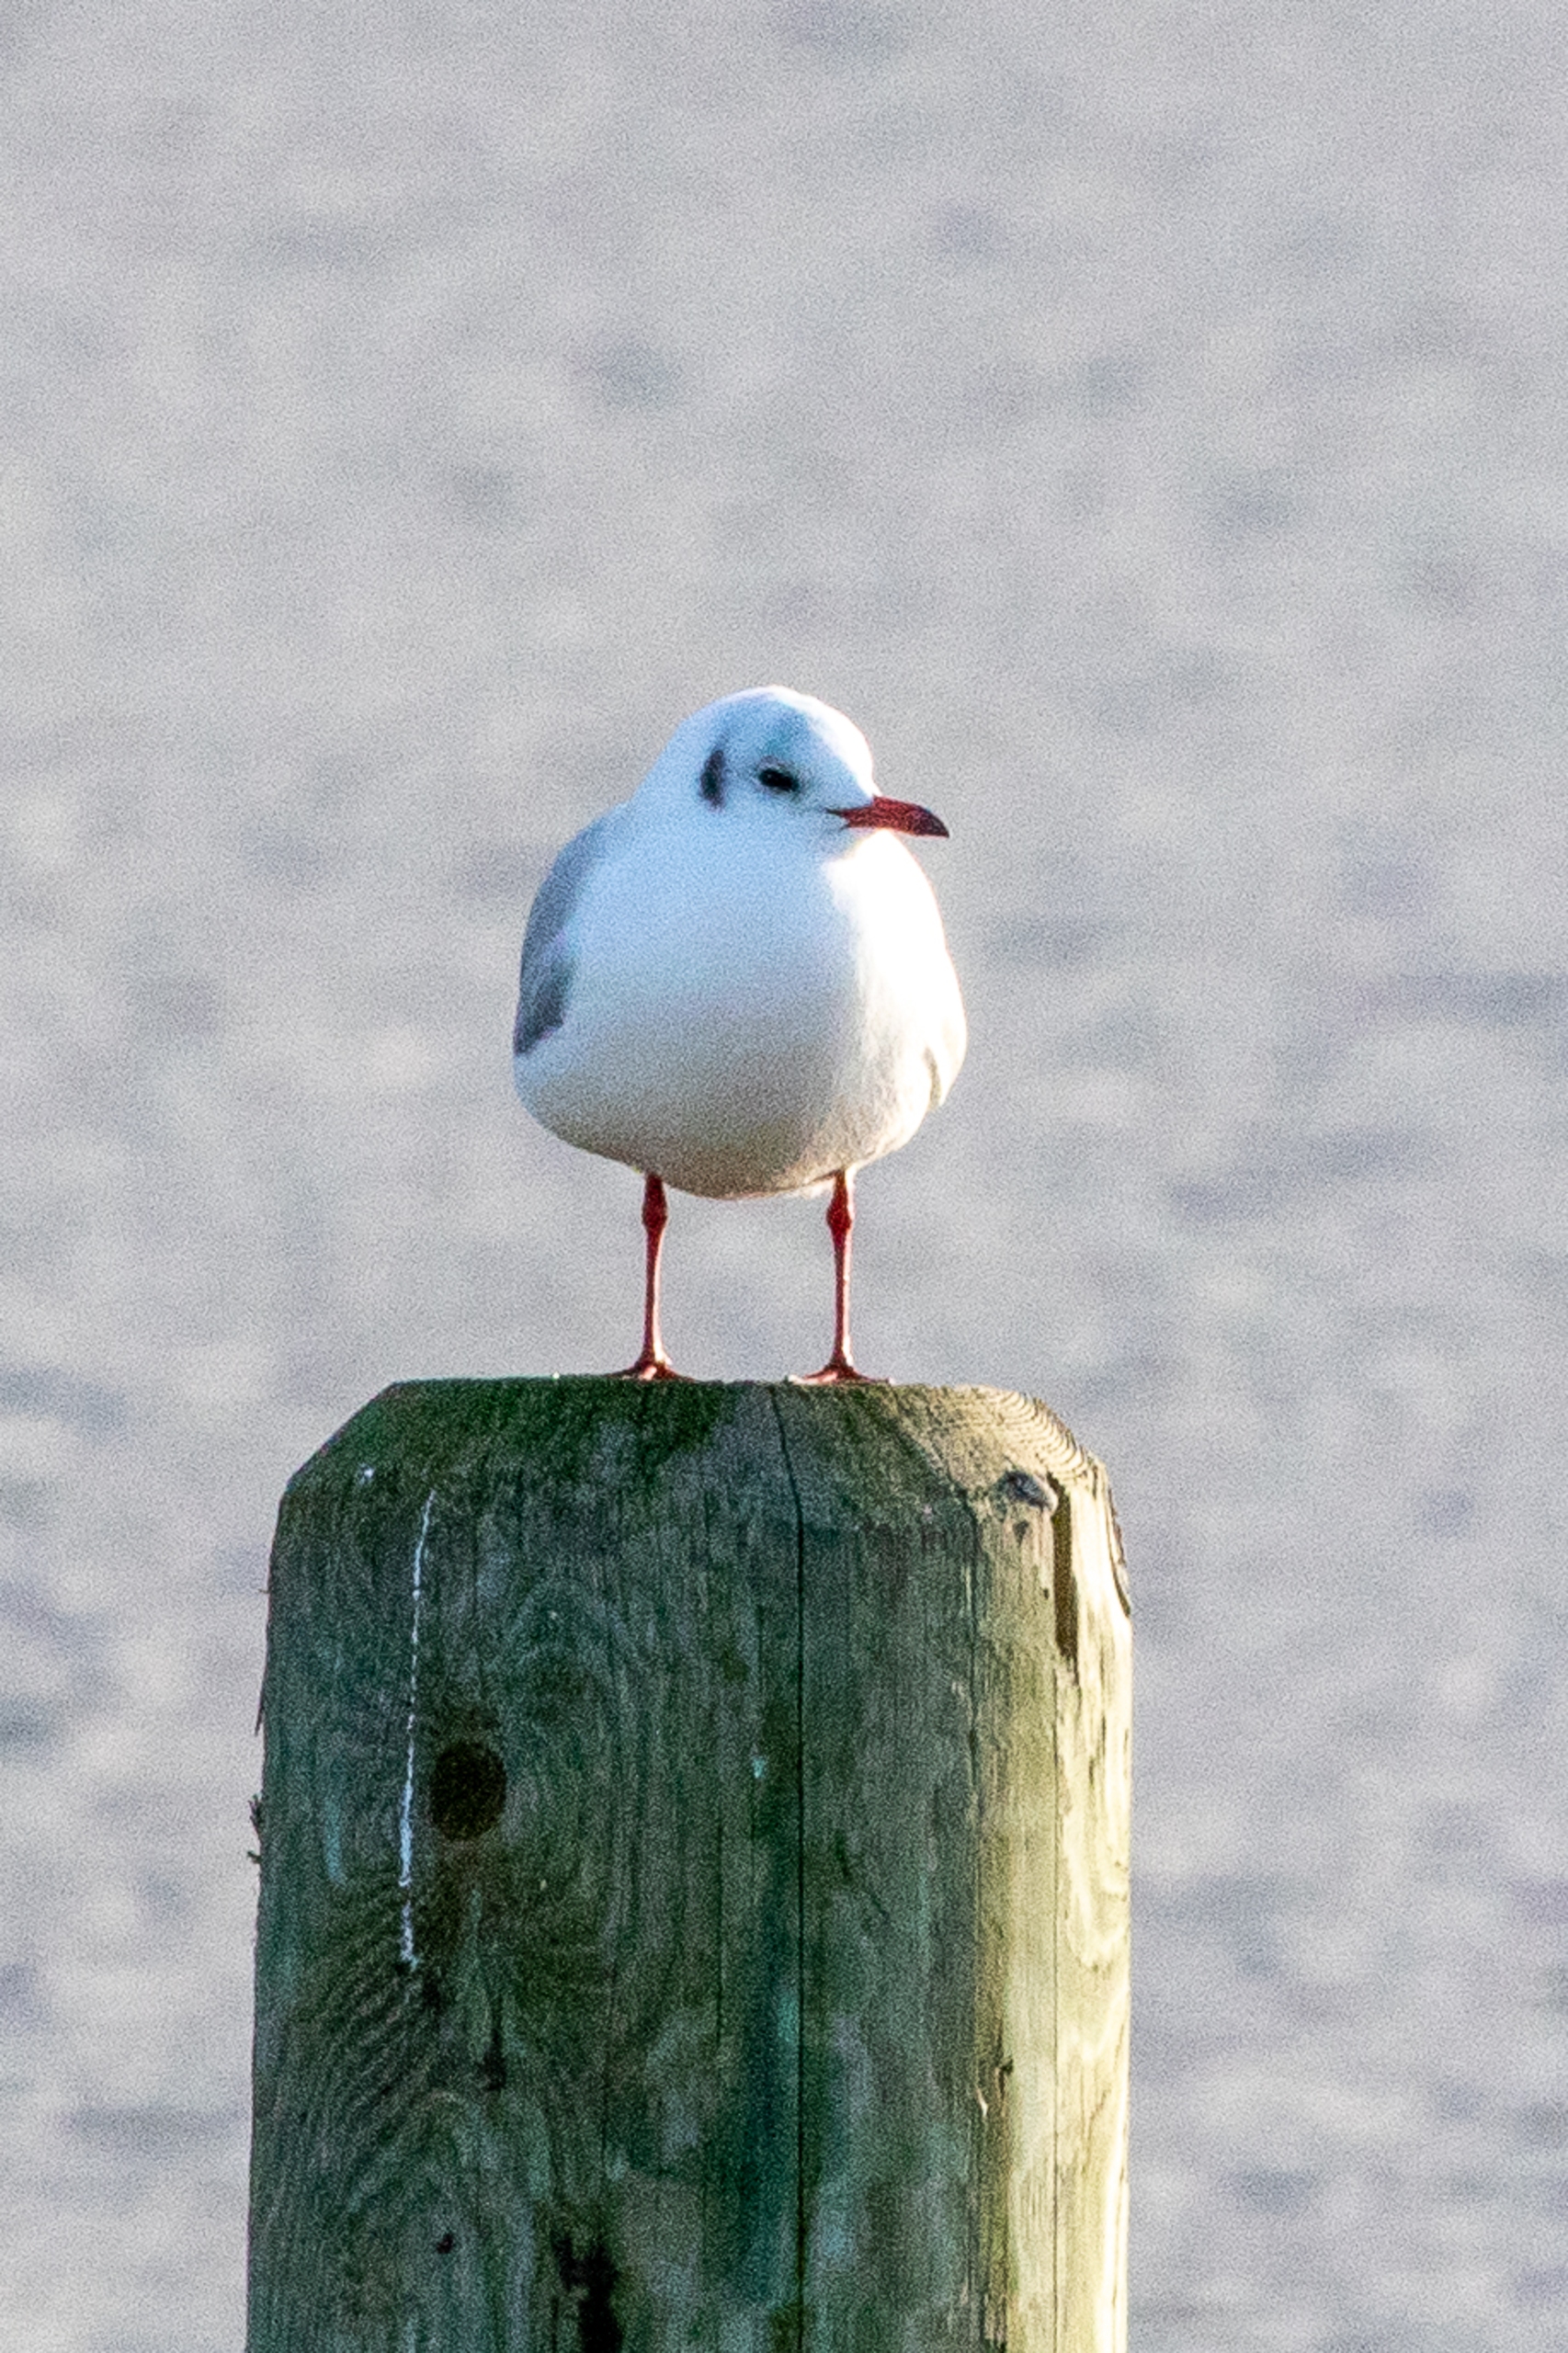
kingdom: Animalia
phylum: Chordata
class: Aves
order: Charadriiformes
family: Laridae
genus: Chroicocephalus
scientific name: Chroicocephalus ridibundus
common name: Hættemåge
